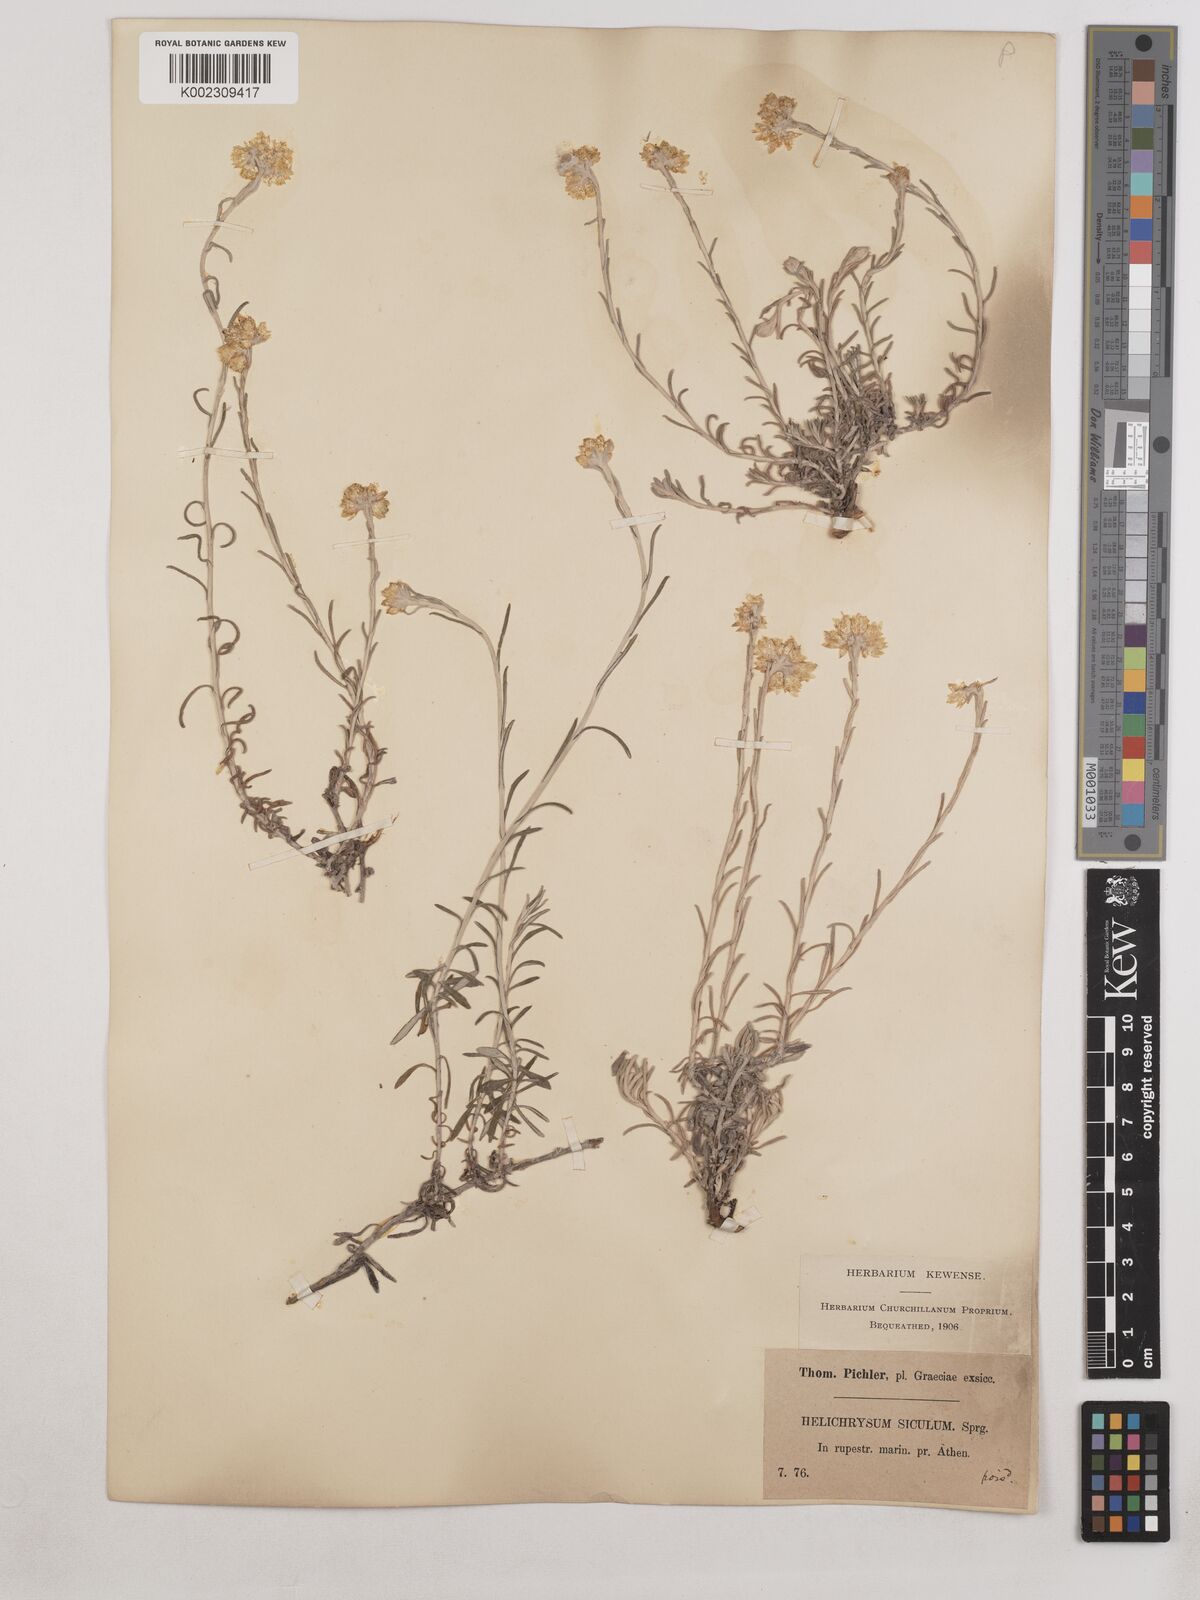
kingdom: Plantae
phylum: Tracheophyta
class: Magnoliopsida
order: Asterales
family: Asteraceae
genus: Helichrysum
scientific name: Helichrysum stoechas
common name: Goldilocks
